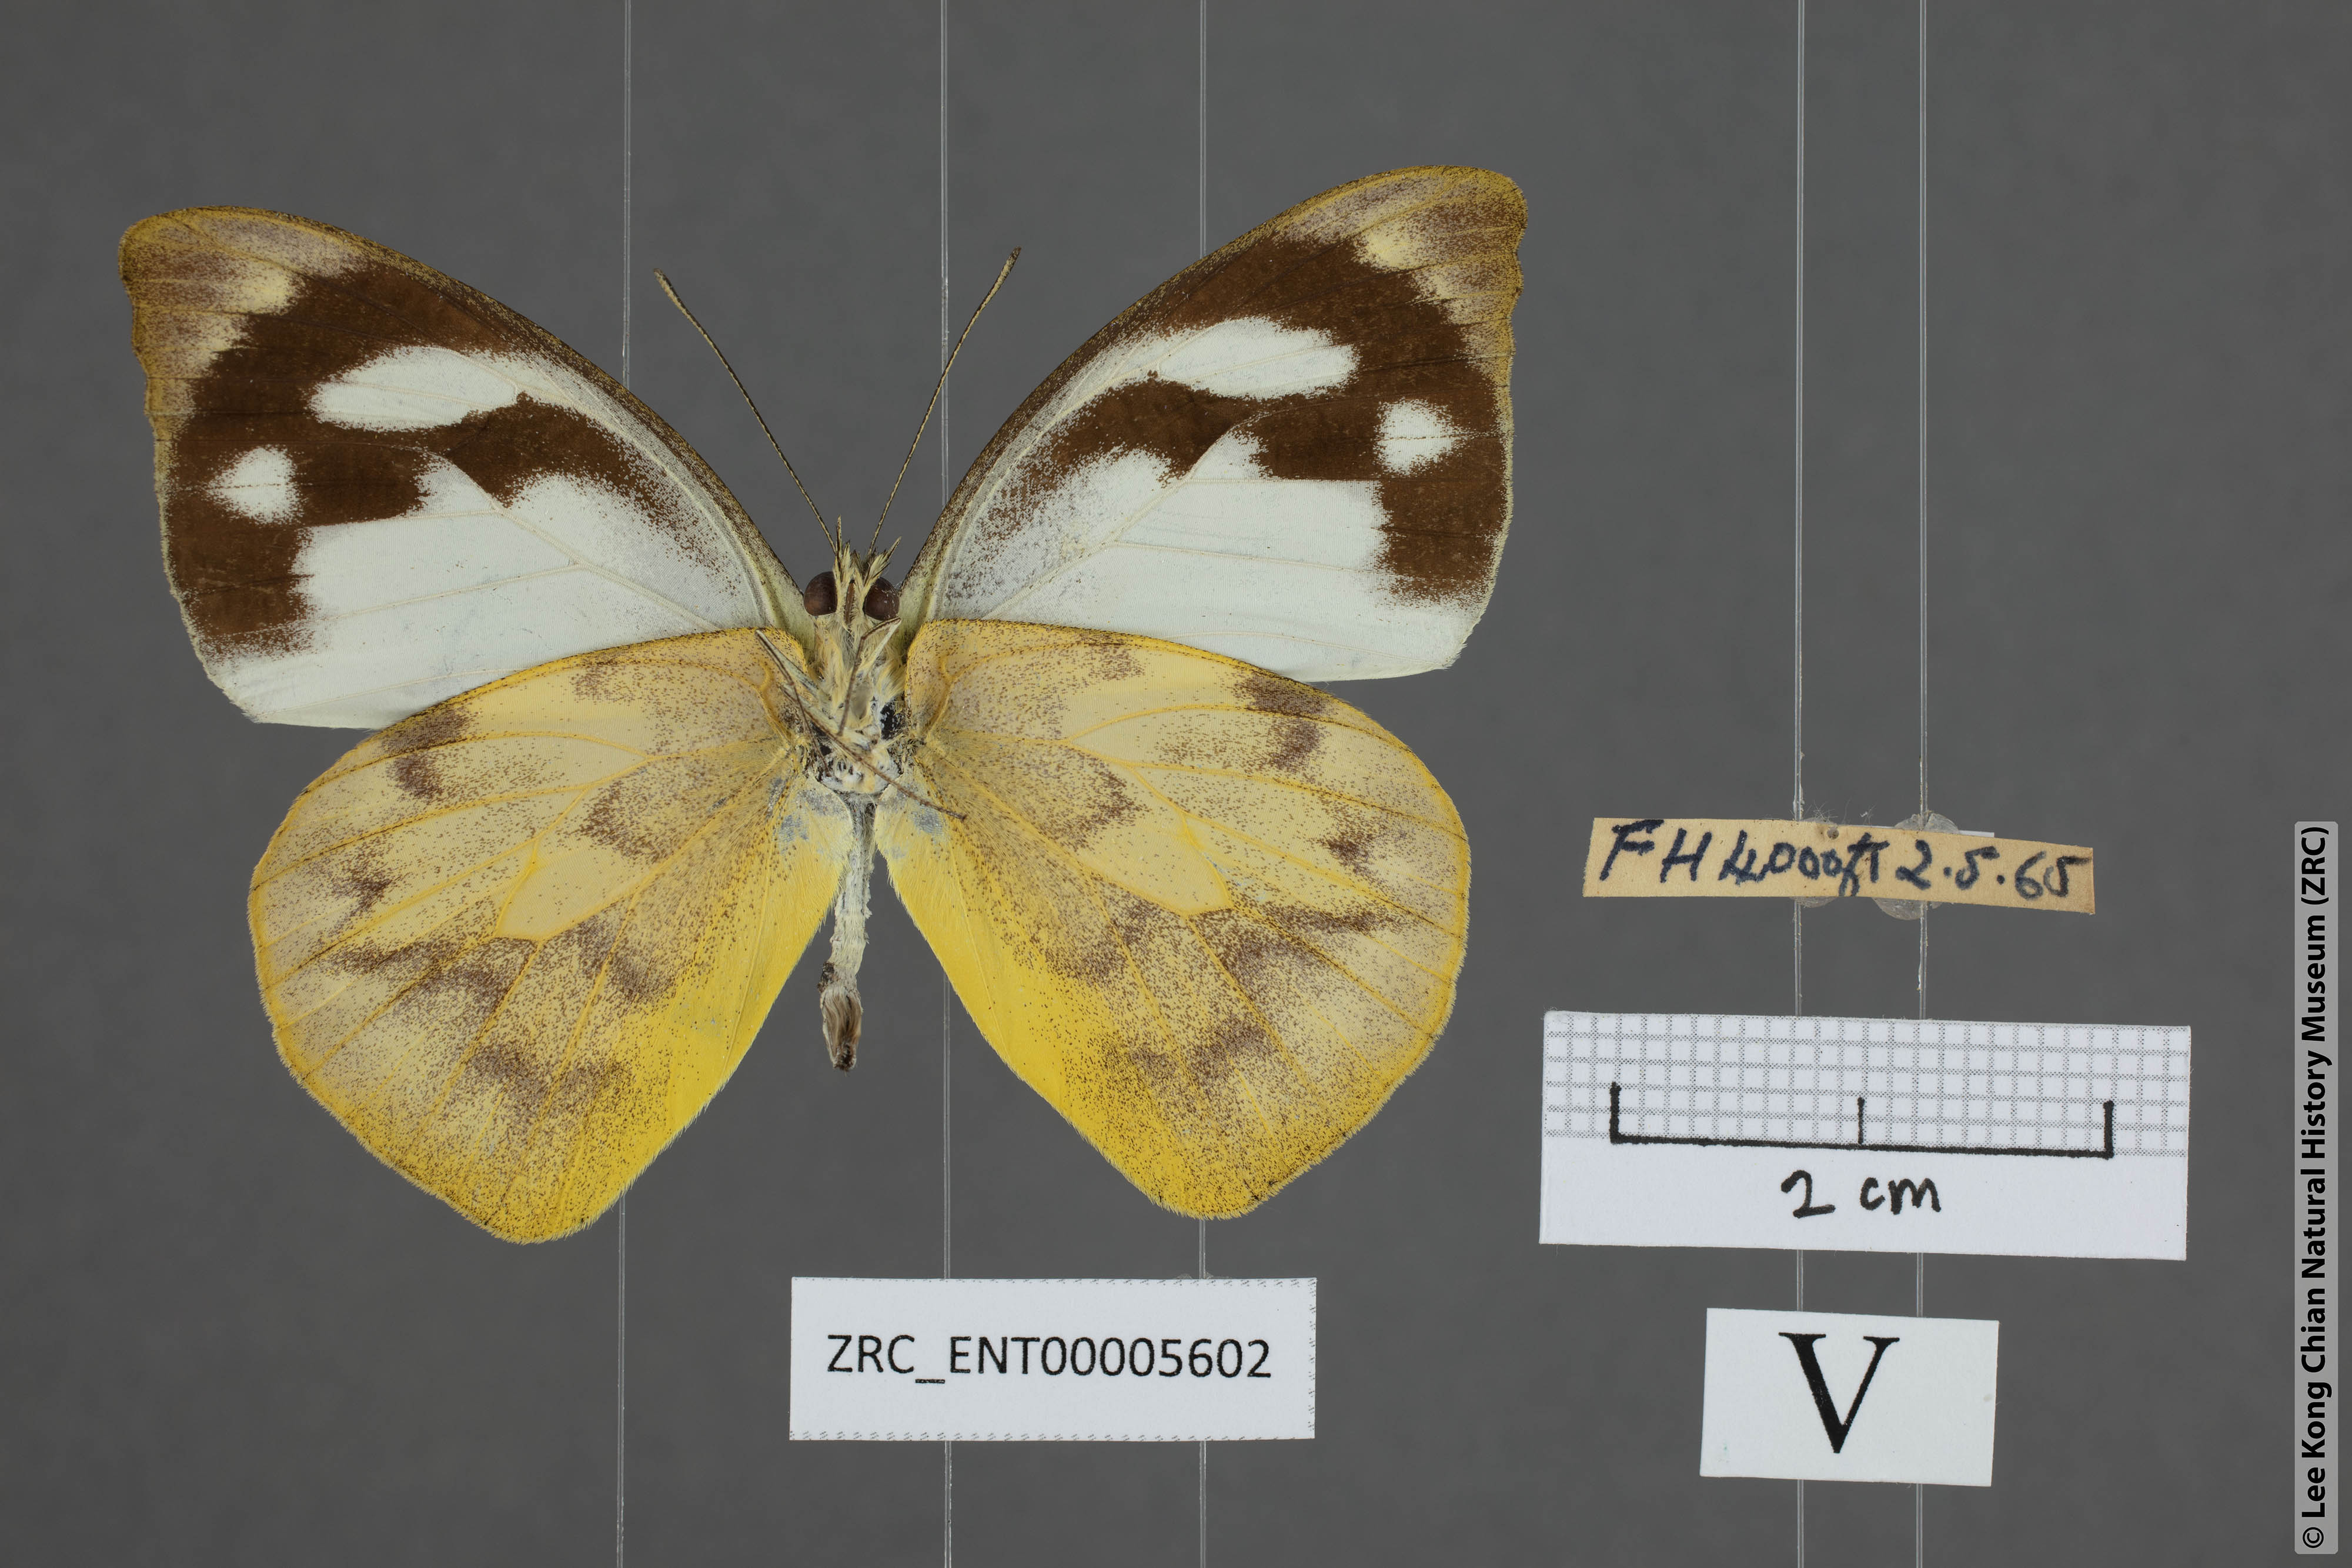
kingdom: Animalia
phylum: Arthropoda
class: Insecta
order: Lepidoptera
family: Pieridae
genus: Appias
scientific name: Appias pandione
